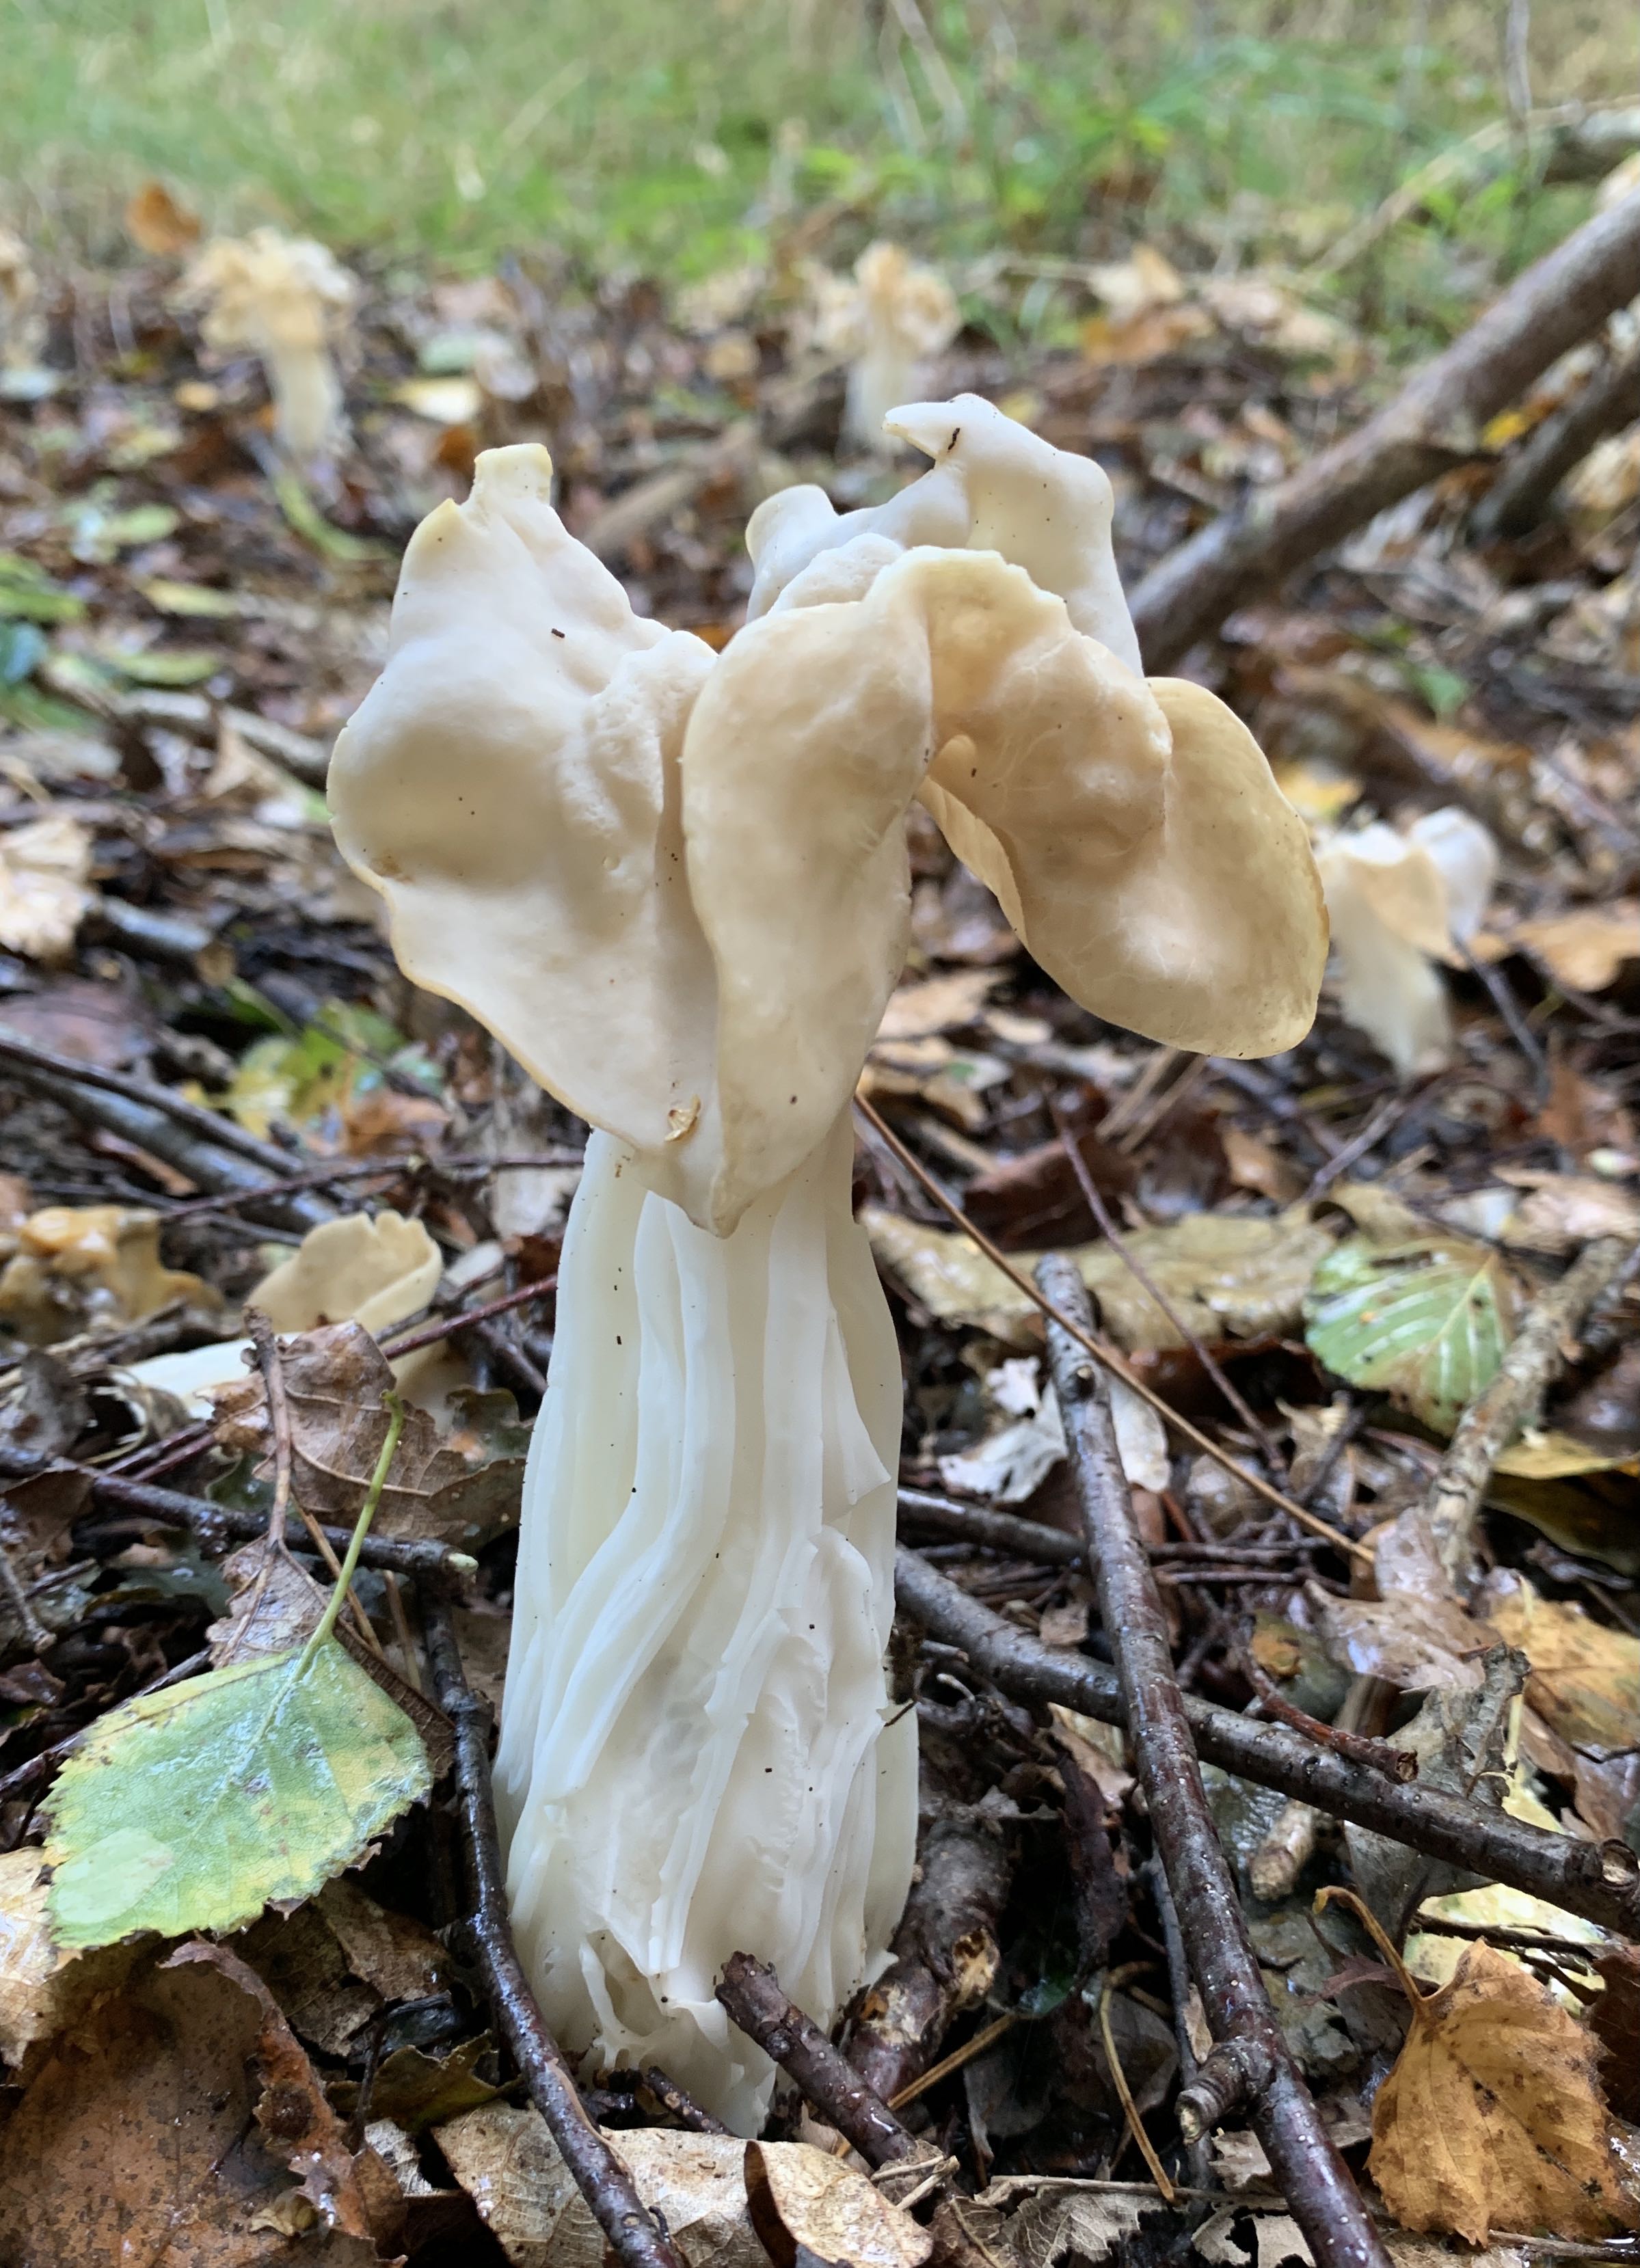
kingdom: Fungi
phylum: Ascomycota
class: Pezizomycetes
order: Pezizales
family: Helvellaceae
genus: Helvella
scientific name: Helvella crispa
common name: kruset foldhat
